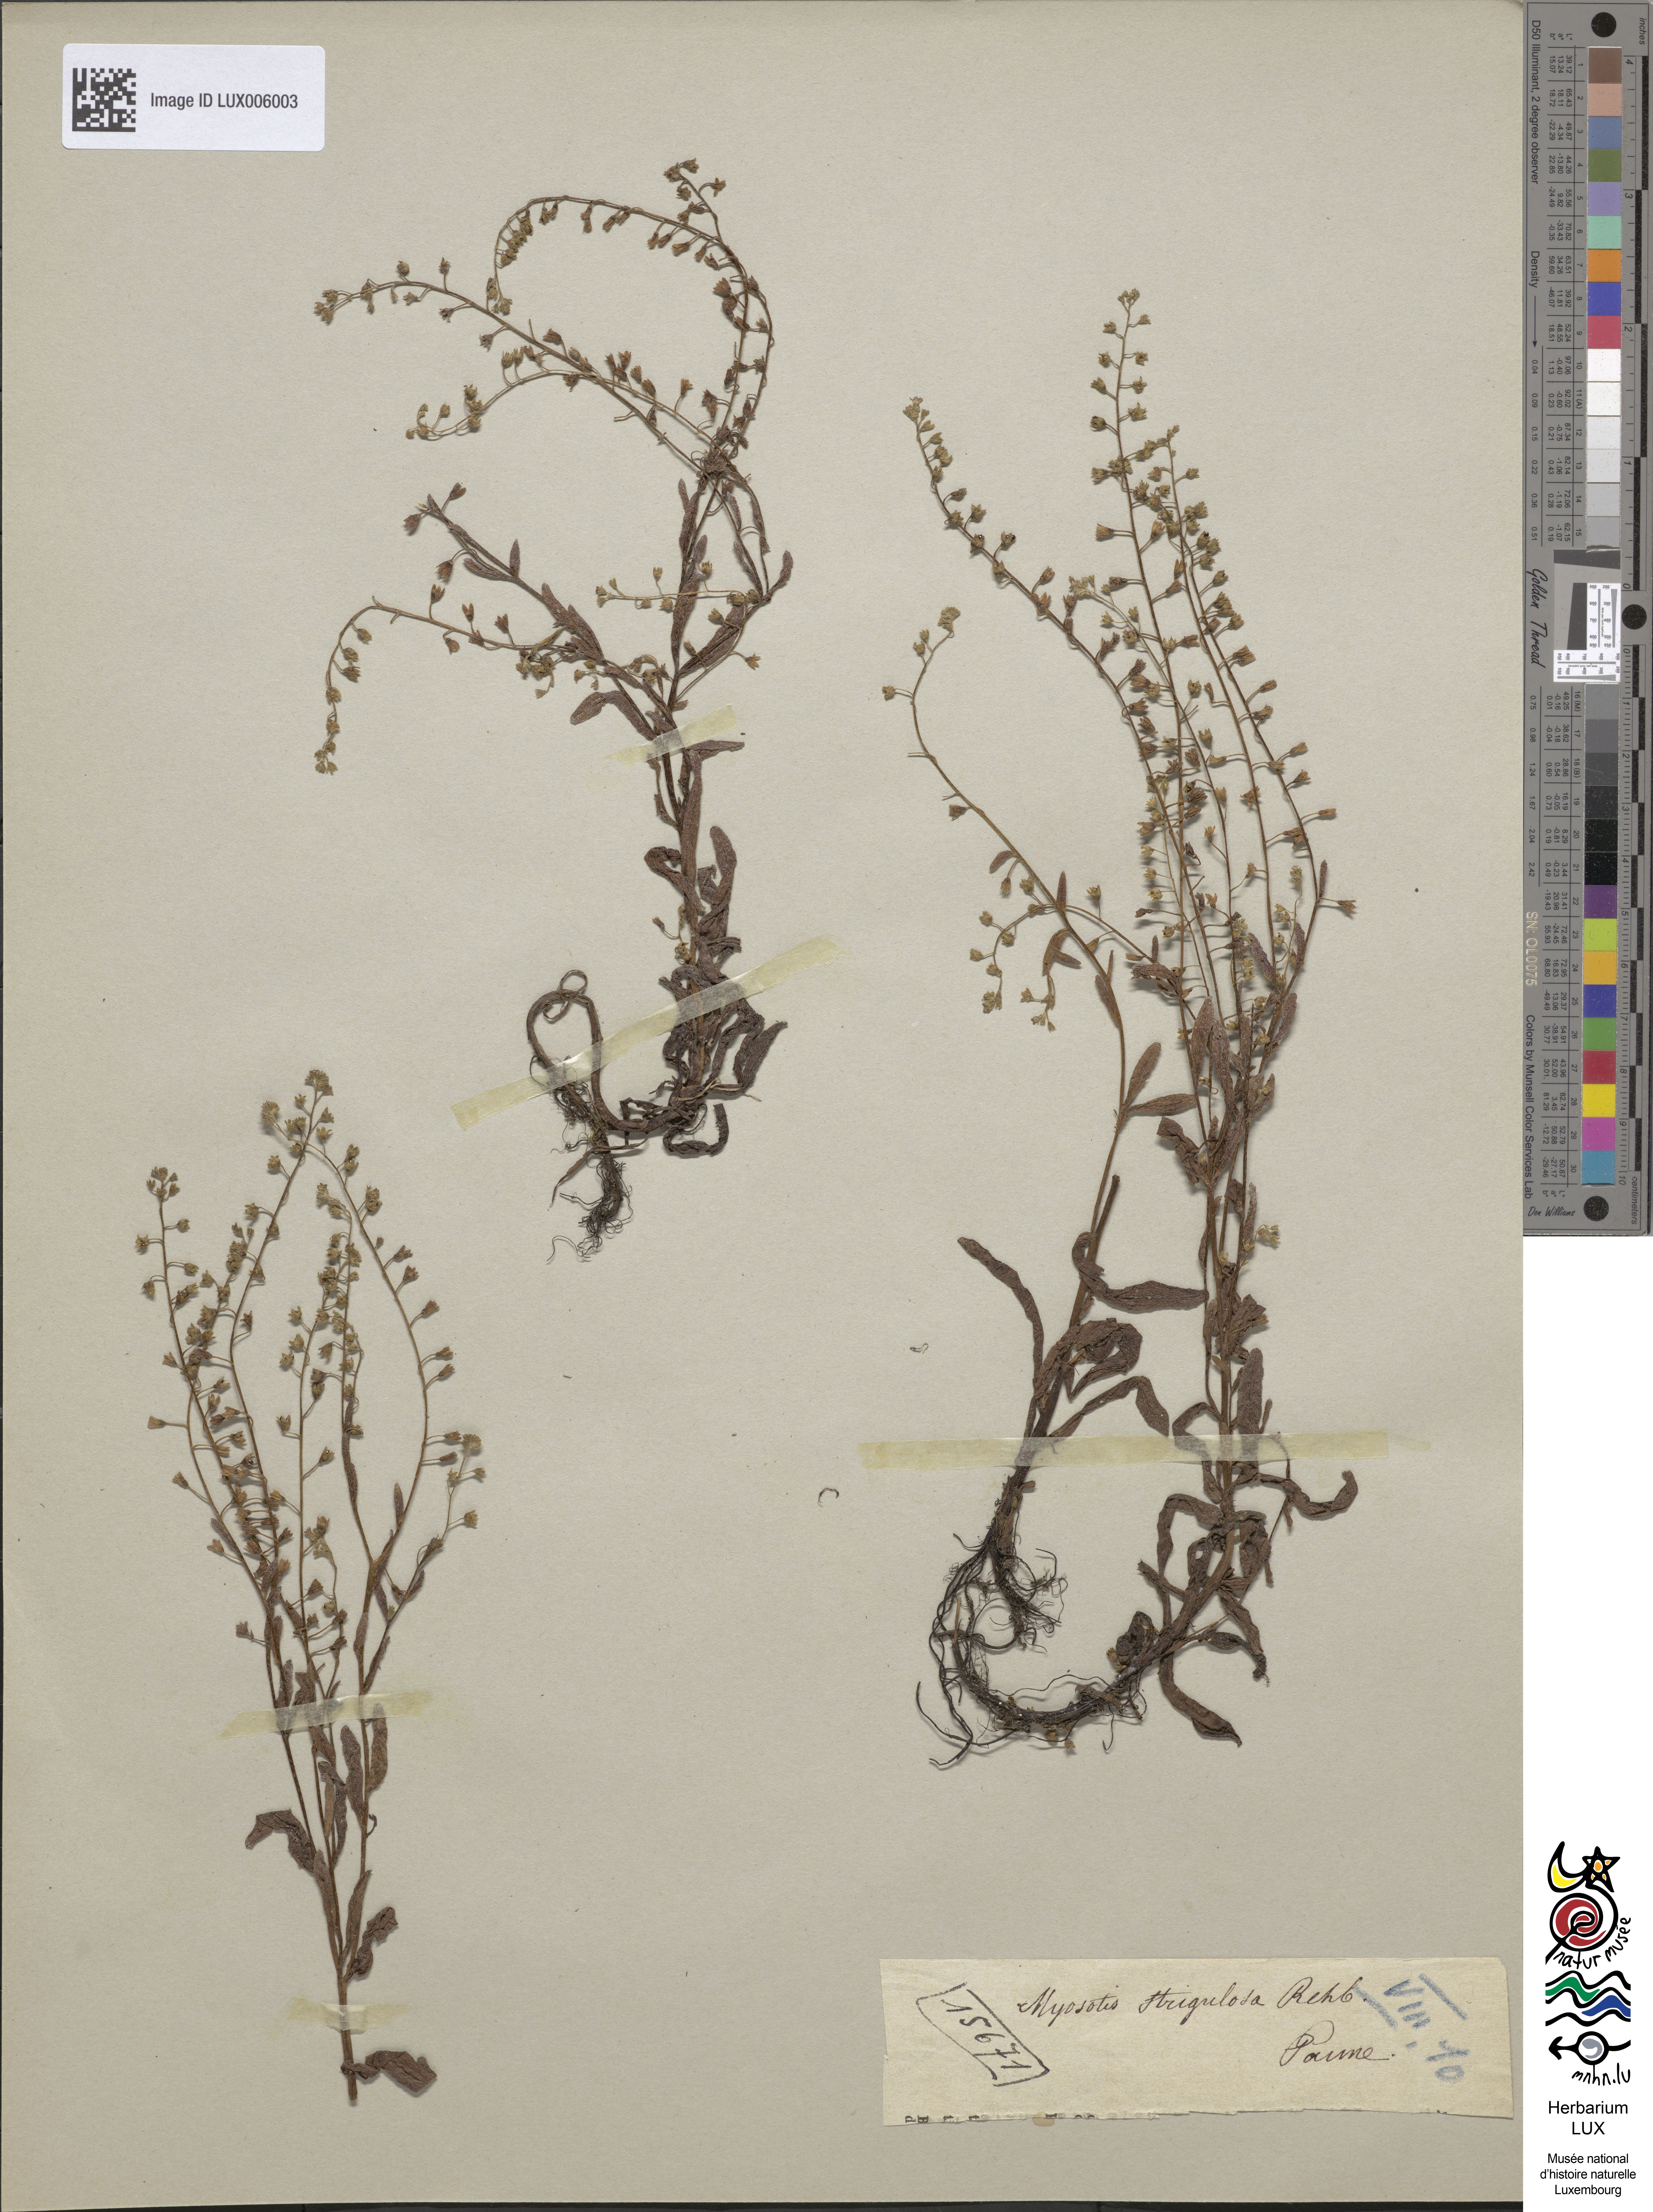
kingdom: Plantae
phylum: Tracheophyta
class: Magnoliopsida
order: Boraginales
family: Boraginaceae
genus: Myosotis
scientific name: Myosotis nemorosa
